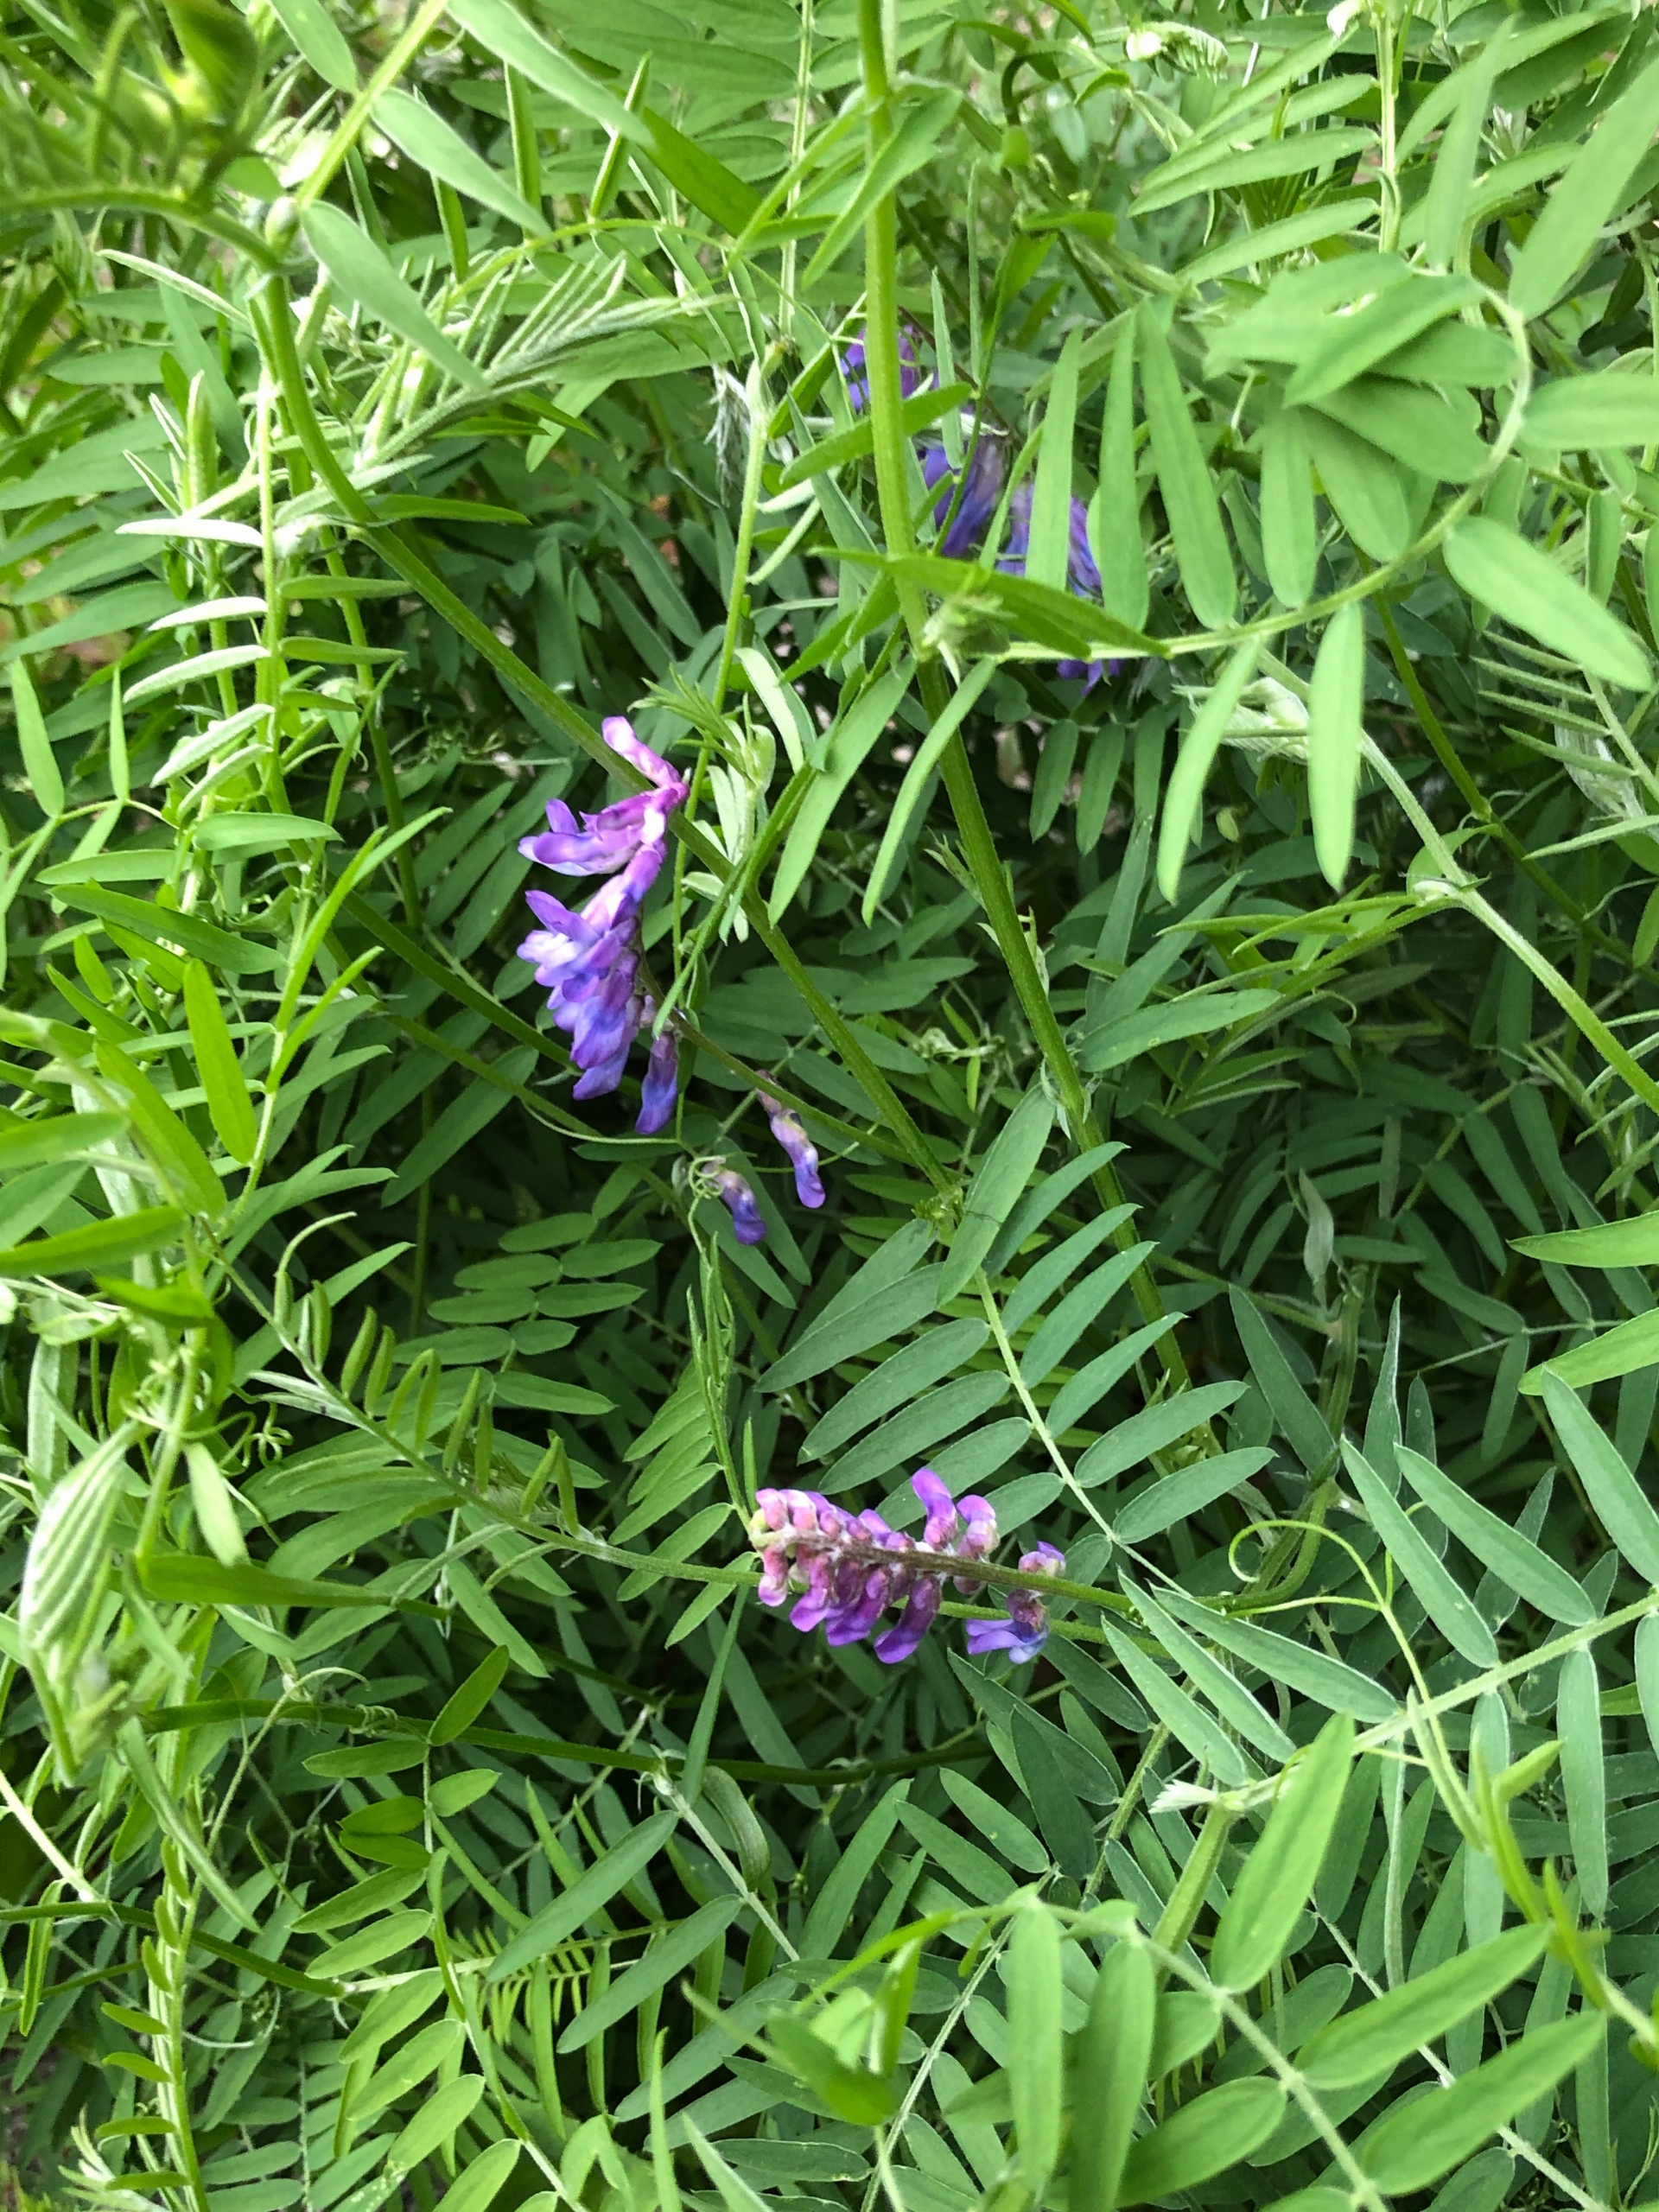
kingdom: Plantae
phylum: Tracheophyta
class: Magnoliopsida
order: Fabales
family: Fabaceae
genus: Vicia
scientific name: Vicia cracca
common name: Muse-vikke
